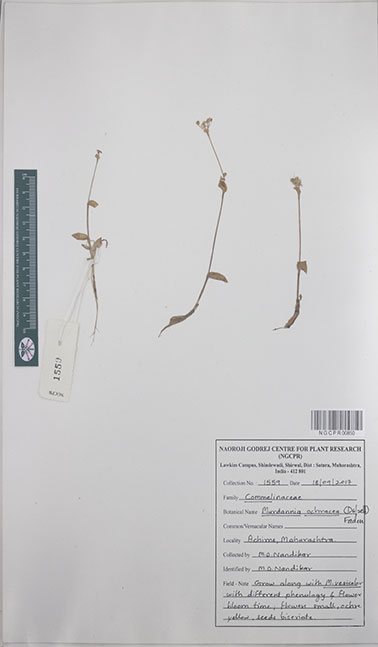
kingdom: Plantae
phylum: Tracheophyta
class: Liliopsida
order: Commelinales
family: Commelinaceae
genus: Murdannia
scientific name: Murdannia crocea
